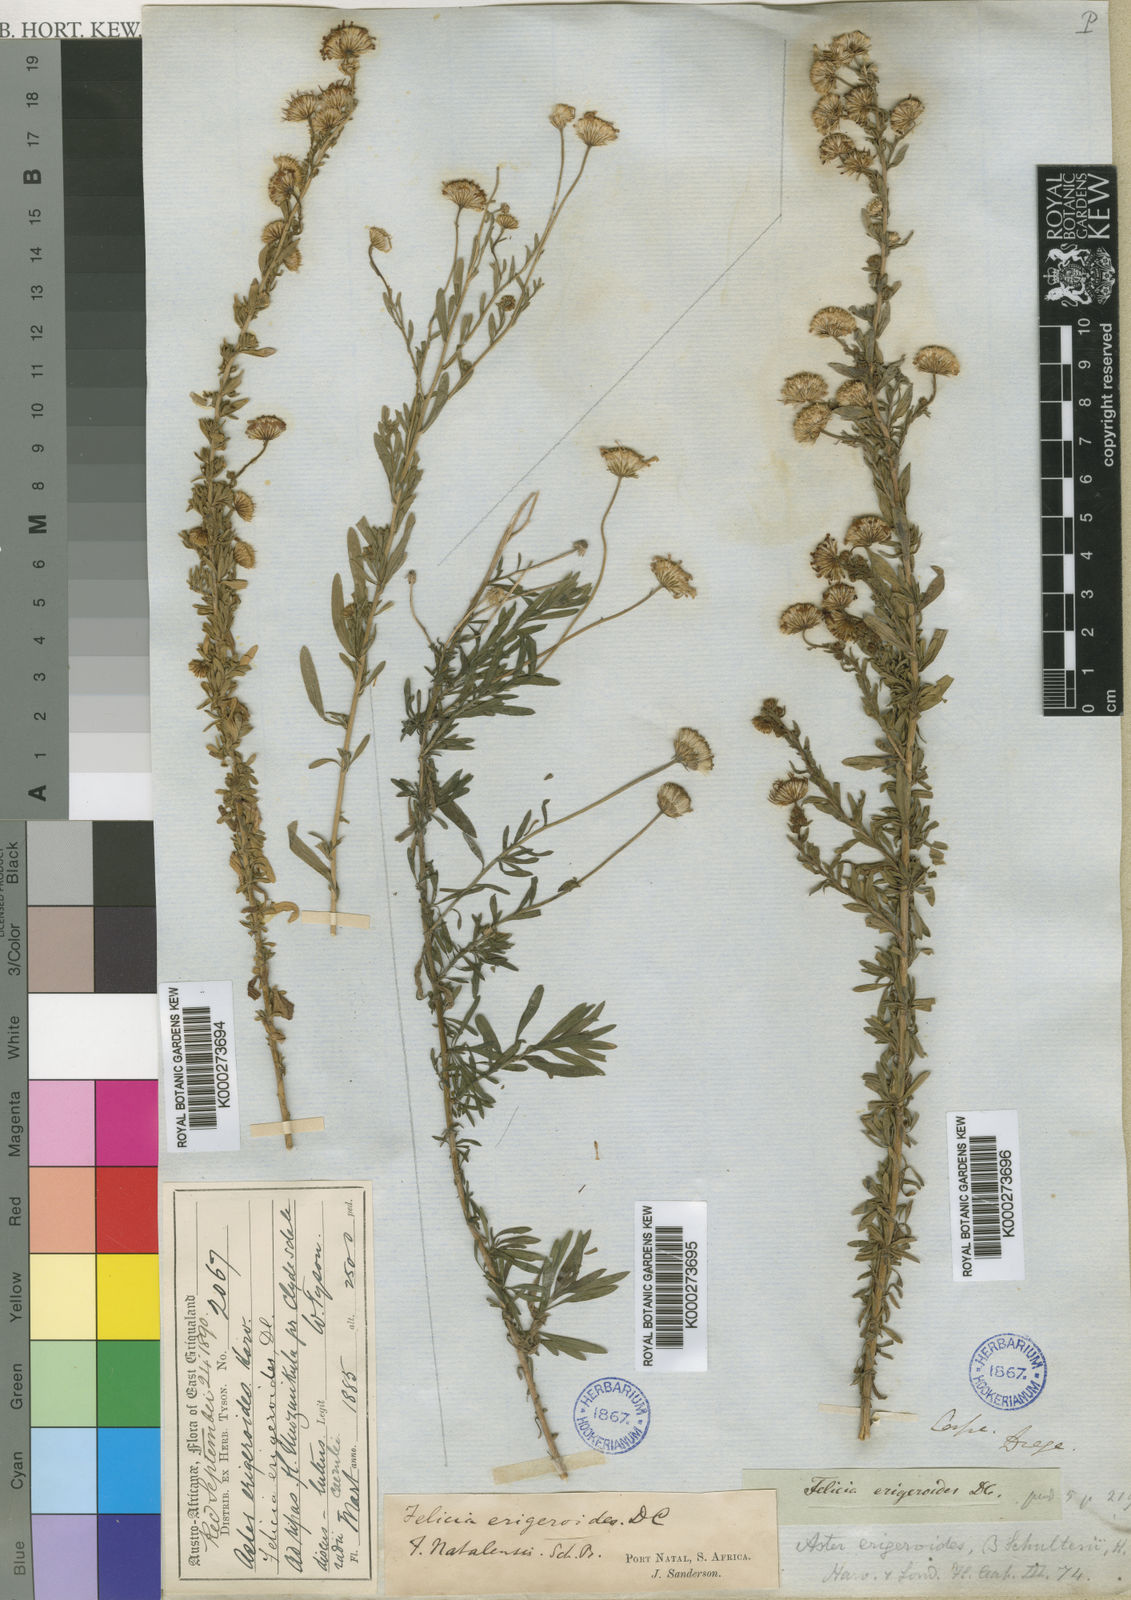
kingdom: Plantae
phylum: Tracheophyta
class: Magnoliopsida
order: Asterales
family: Asteraceae
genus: Felicia
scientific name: Felicia erigeroides
